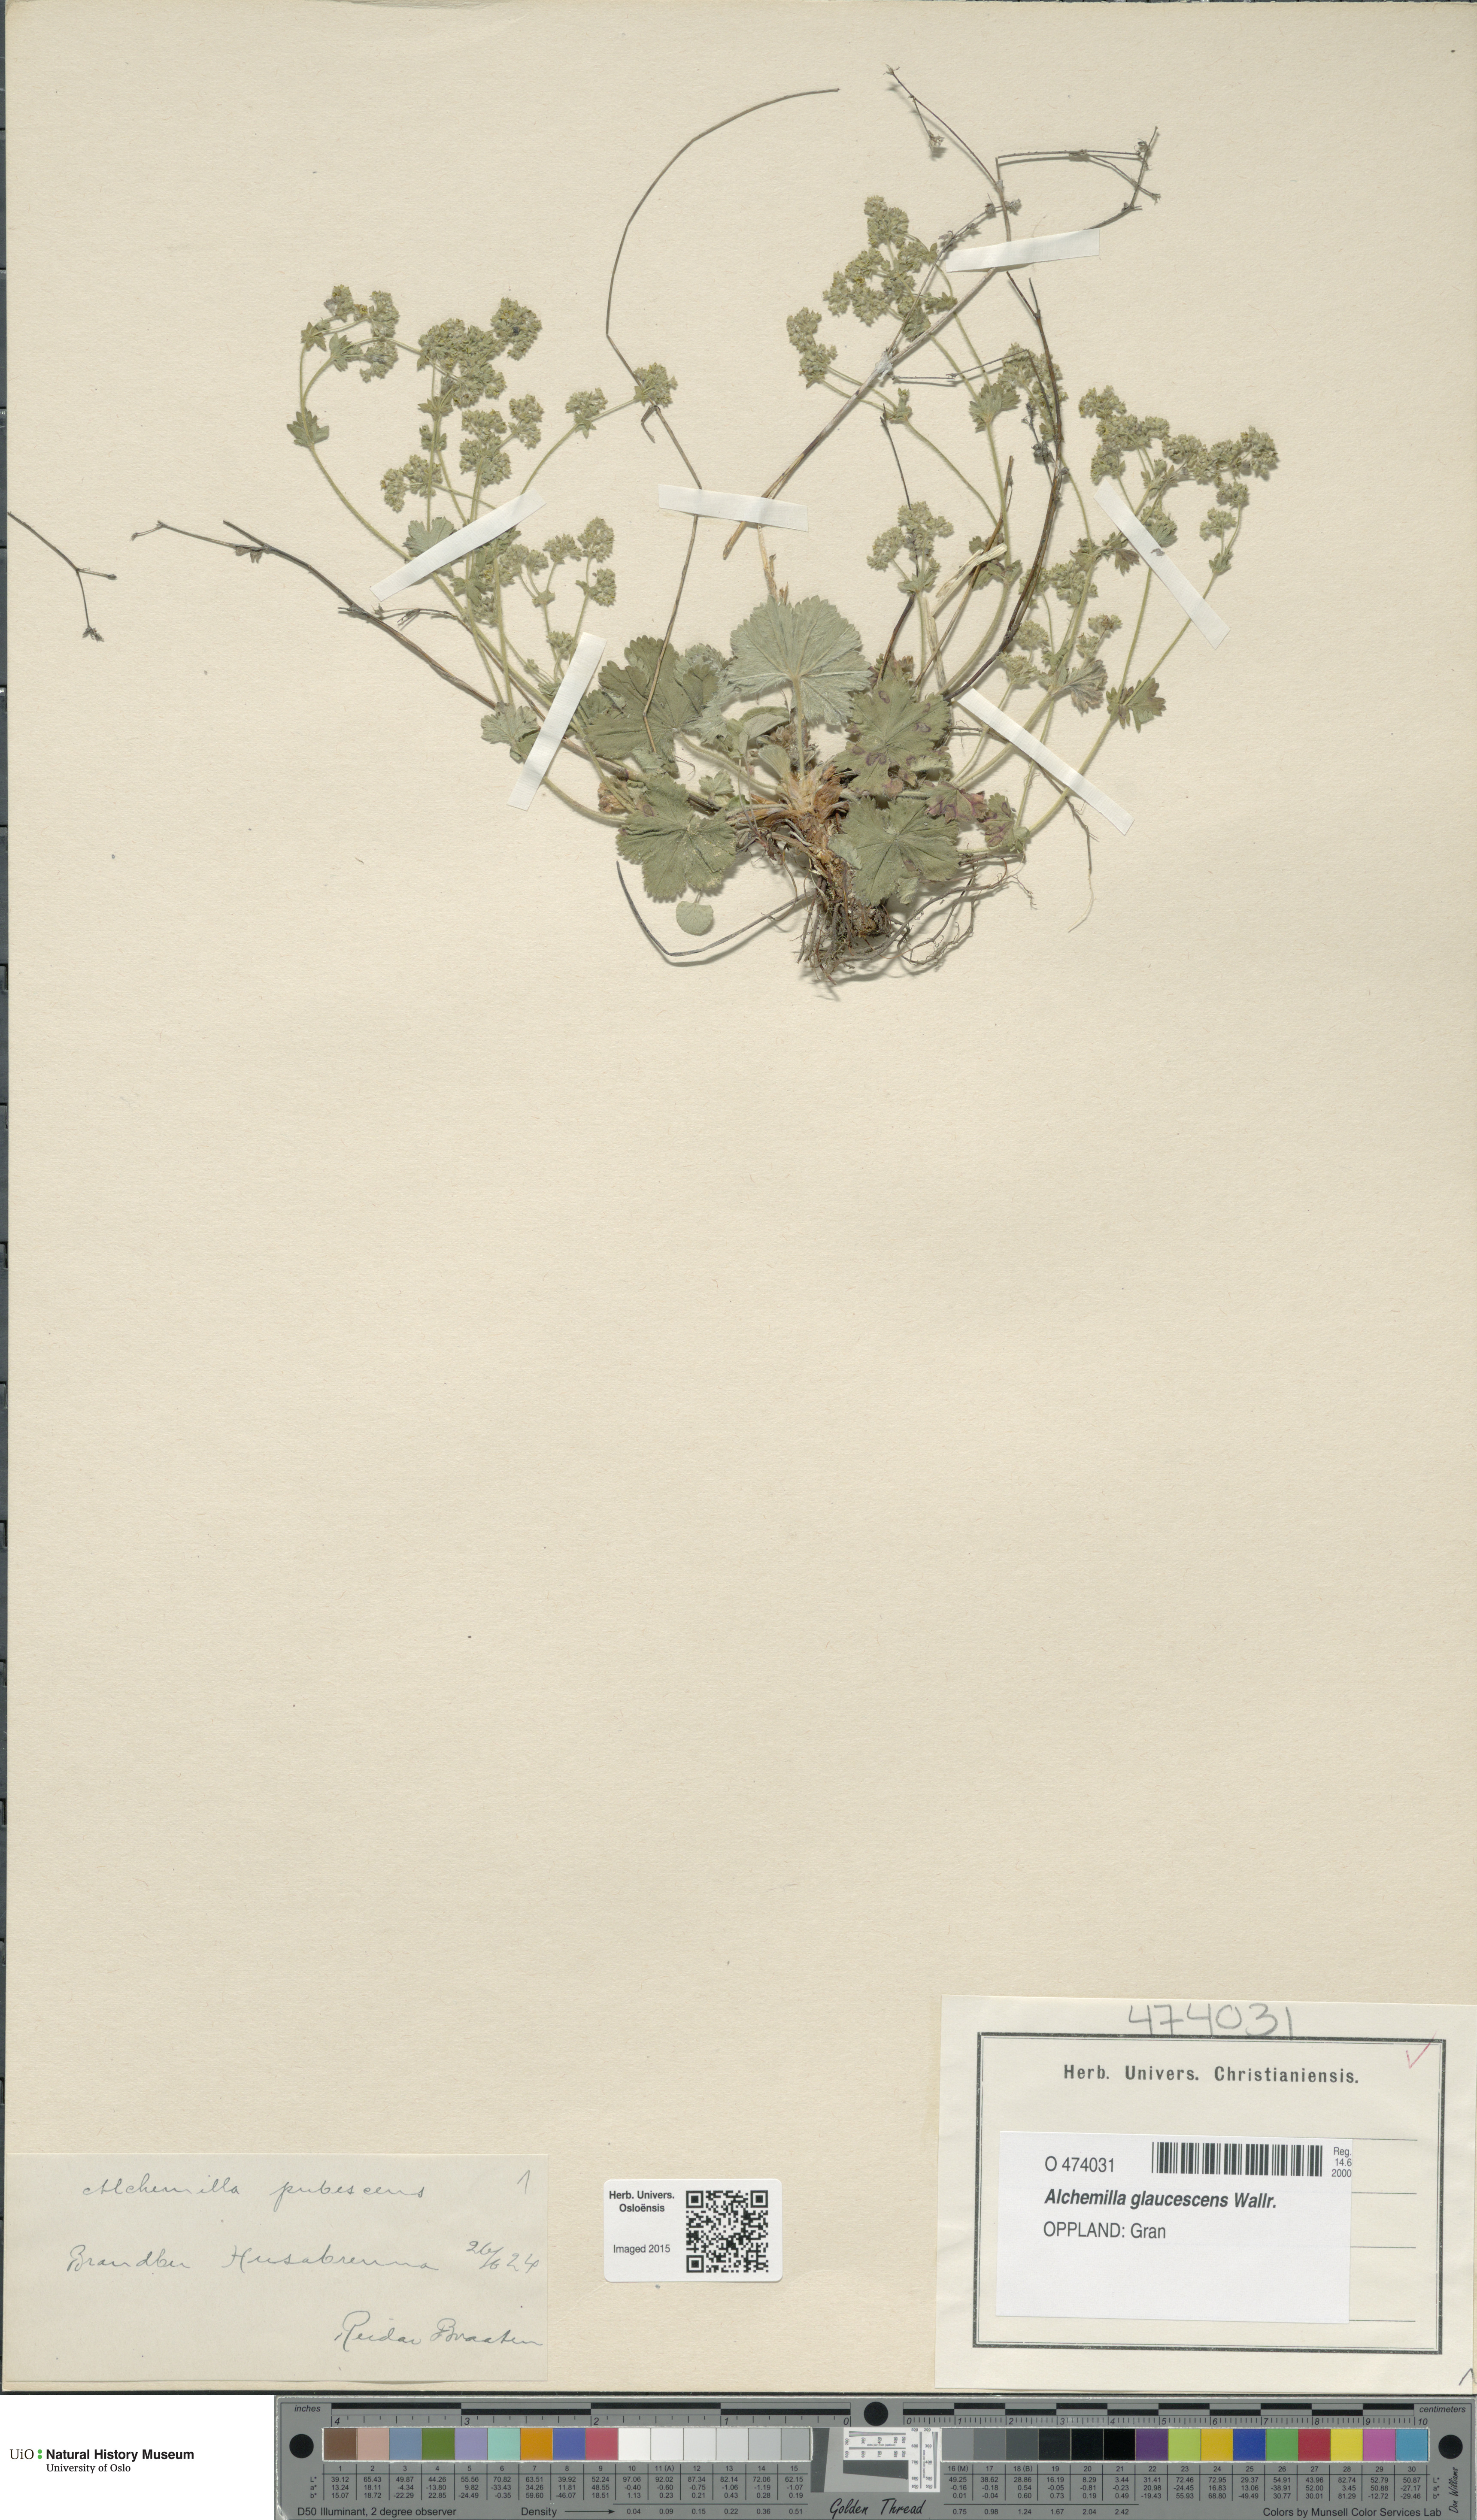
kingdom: Plantae
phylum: Tracheophyta
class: Magnoliopsida
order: Rosales
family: Rosaceae
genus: Alchemilla
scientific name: Alchemilla glaucescens
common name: Silky lady's mantle
